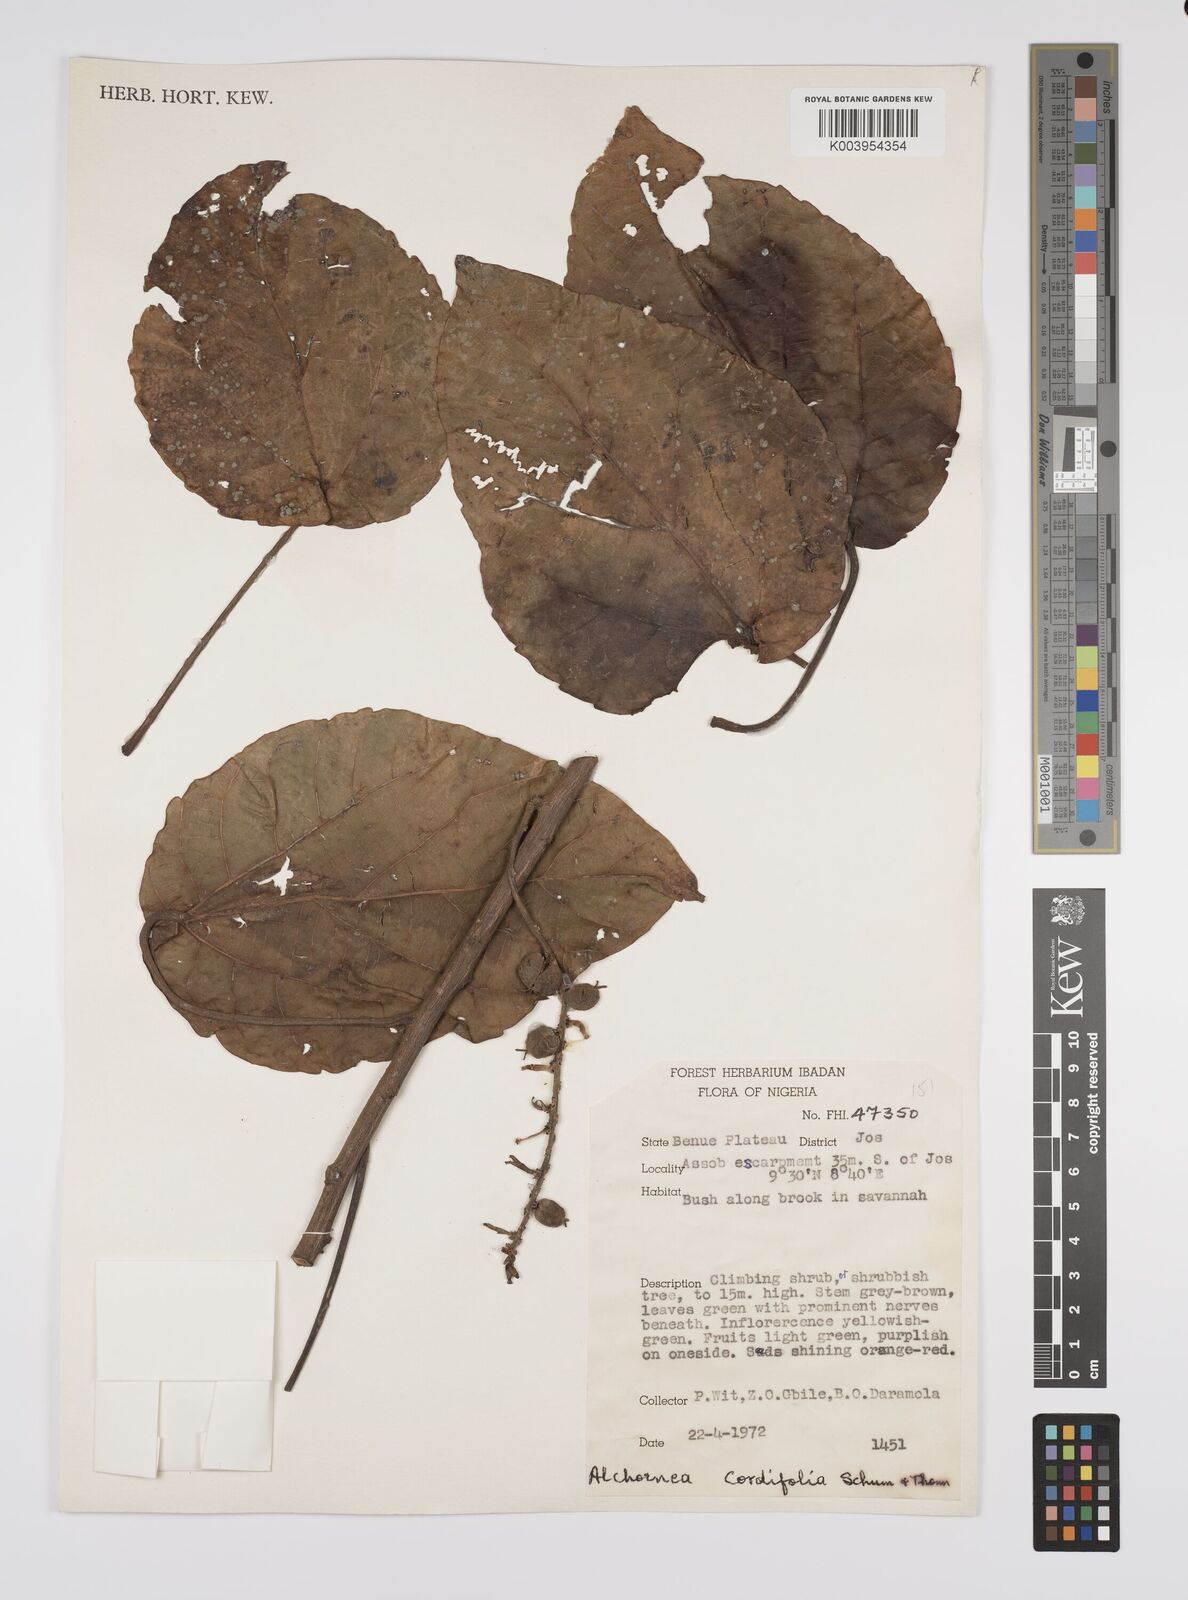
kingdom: Plantae
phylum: Tracheophyta
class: Magnoliopsida
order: Malpighiales
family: Euphorbiaceae
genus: Alchornea
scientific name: Alchornea cordifolia
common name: Christmasbush
